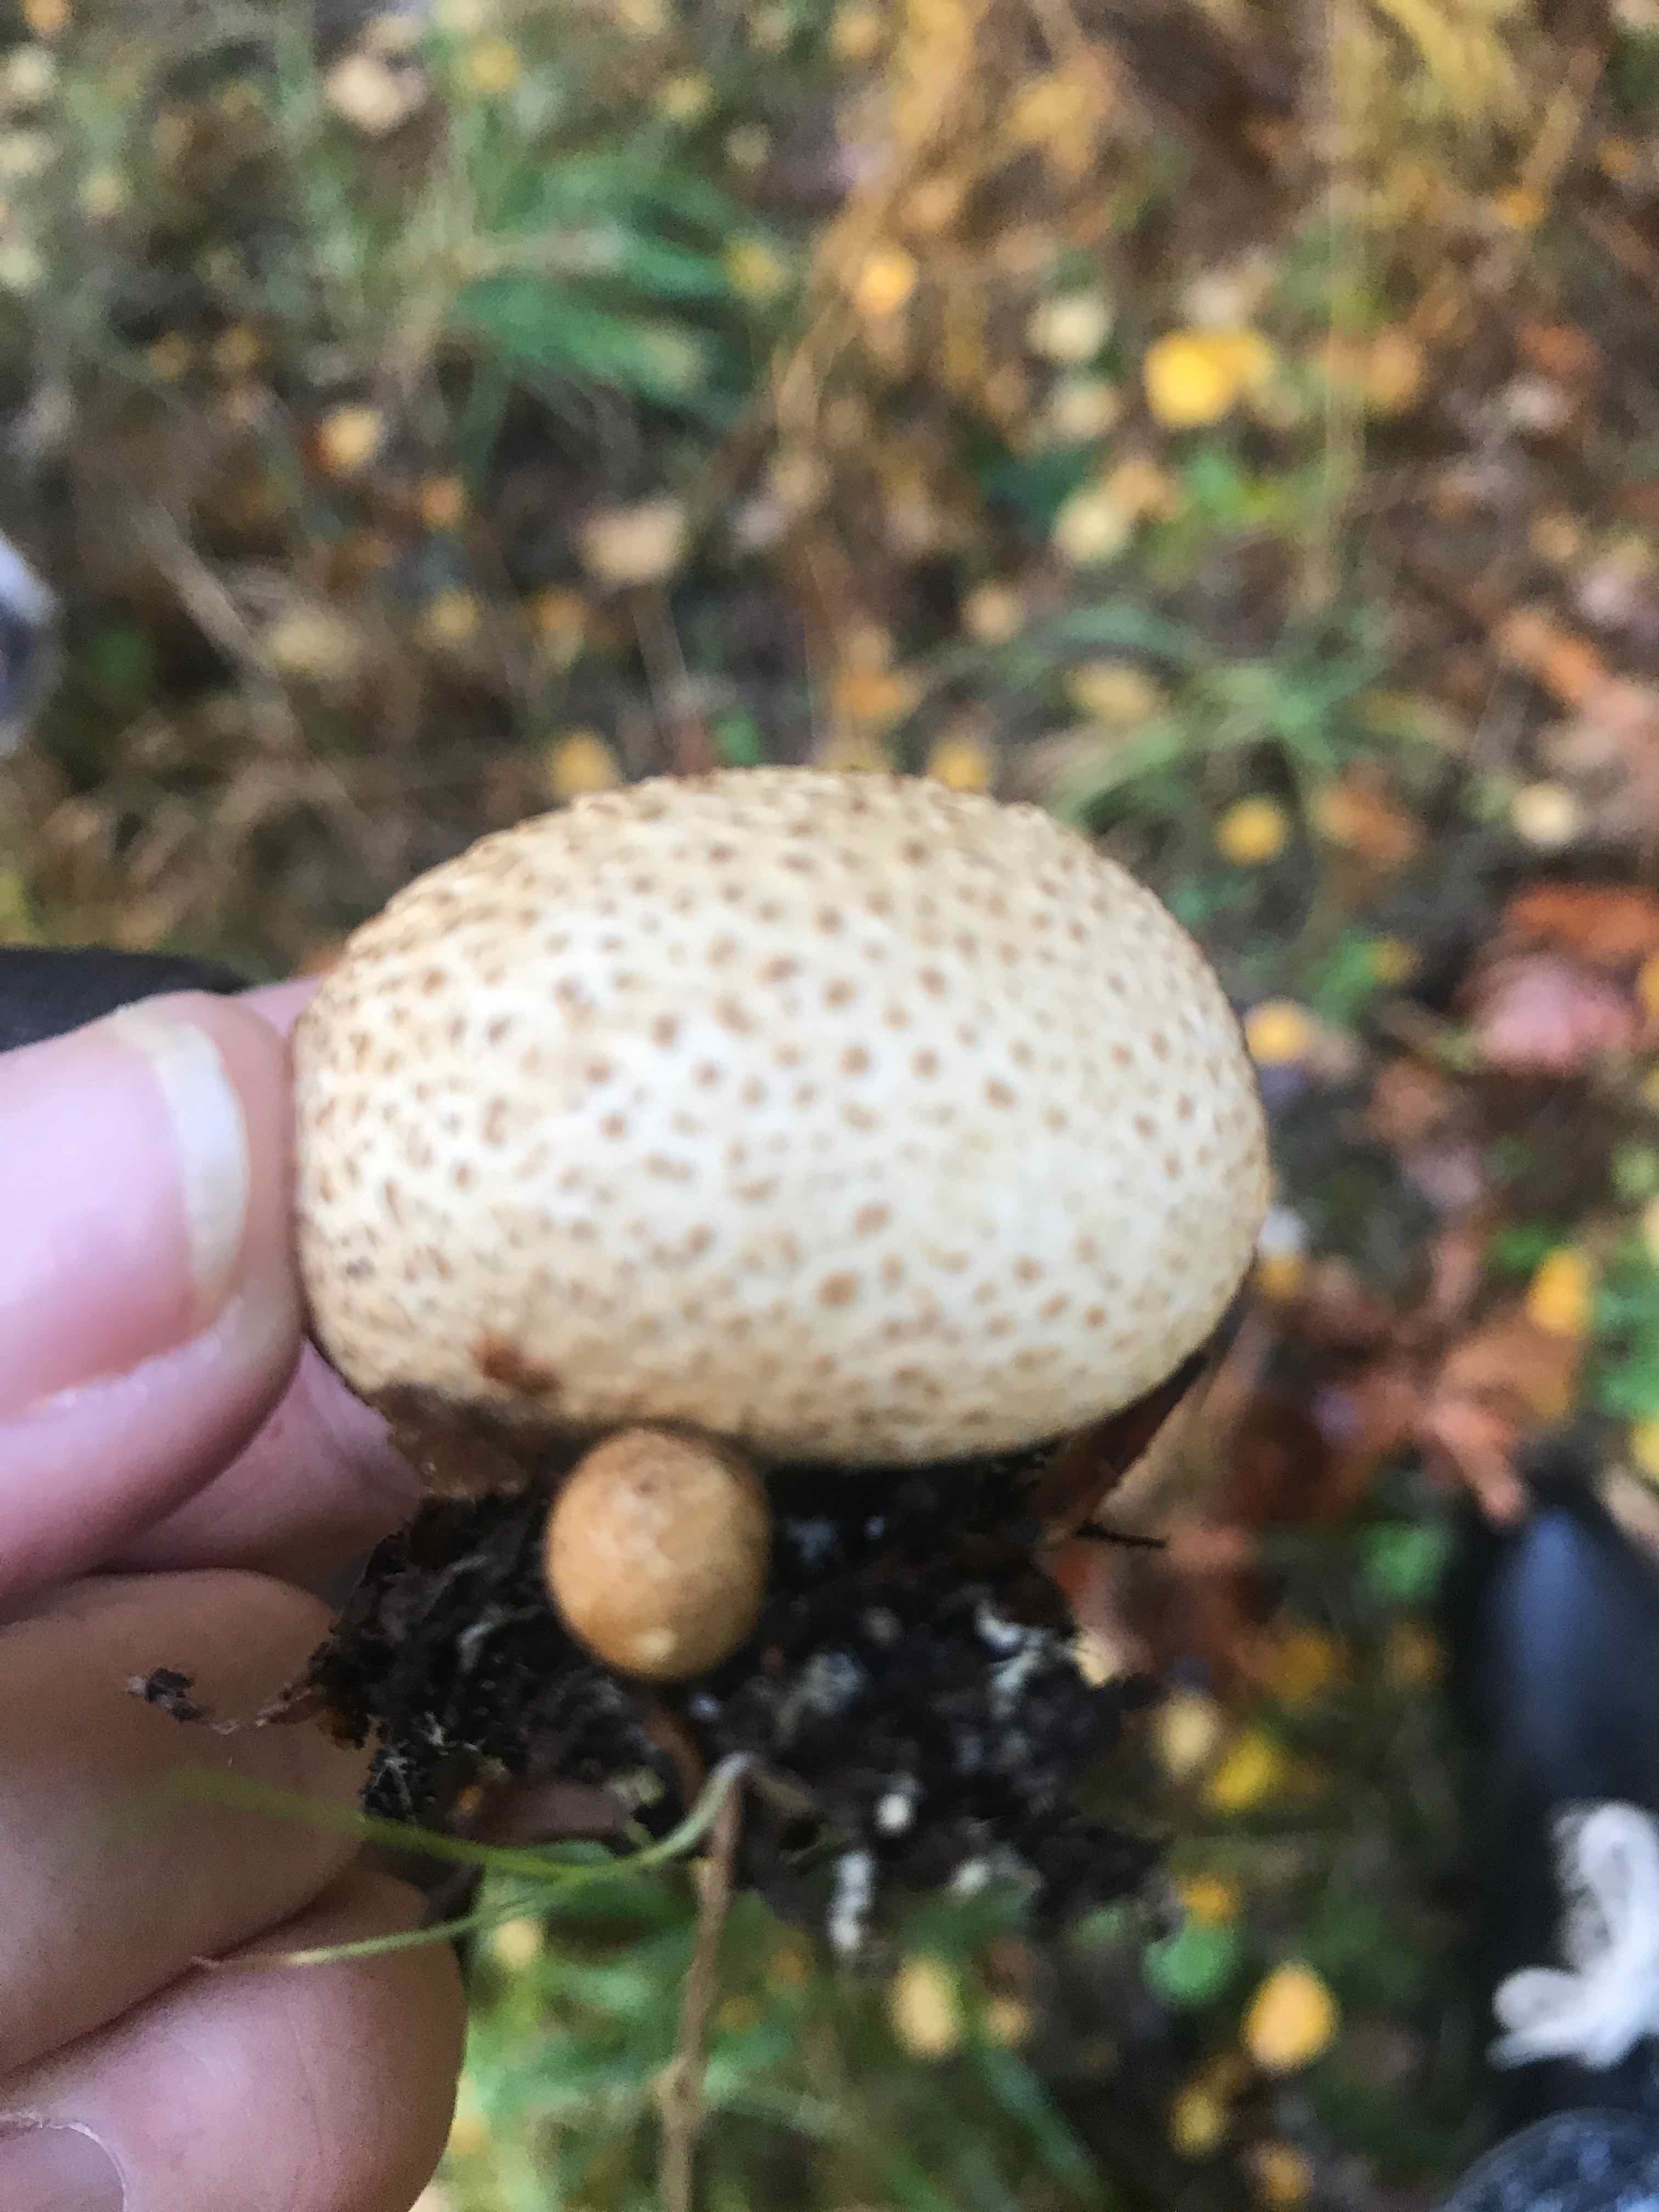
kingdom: Fungi
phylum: Basidiomycota
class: Agaricomycetes
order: Boletales
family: Sclerodermataceae
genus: Scleroderma
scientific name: Scleroderma citrinum
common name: almindelig bruskbold
